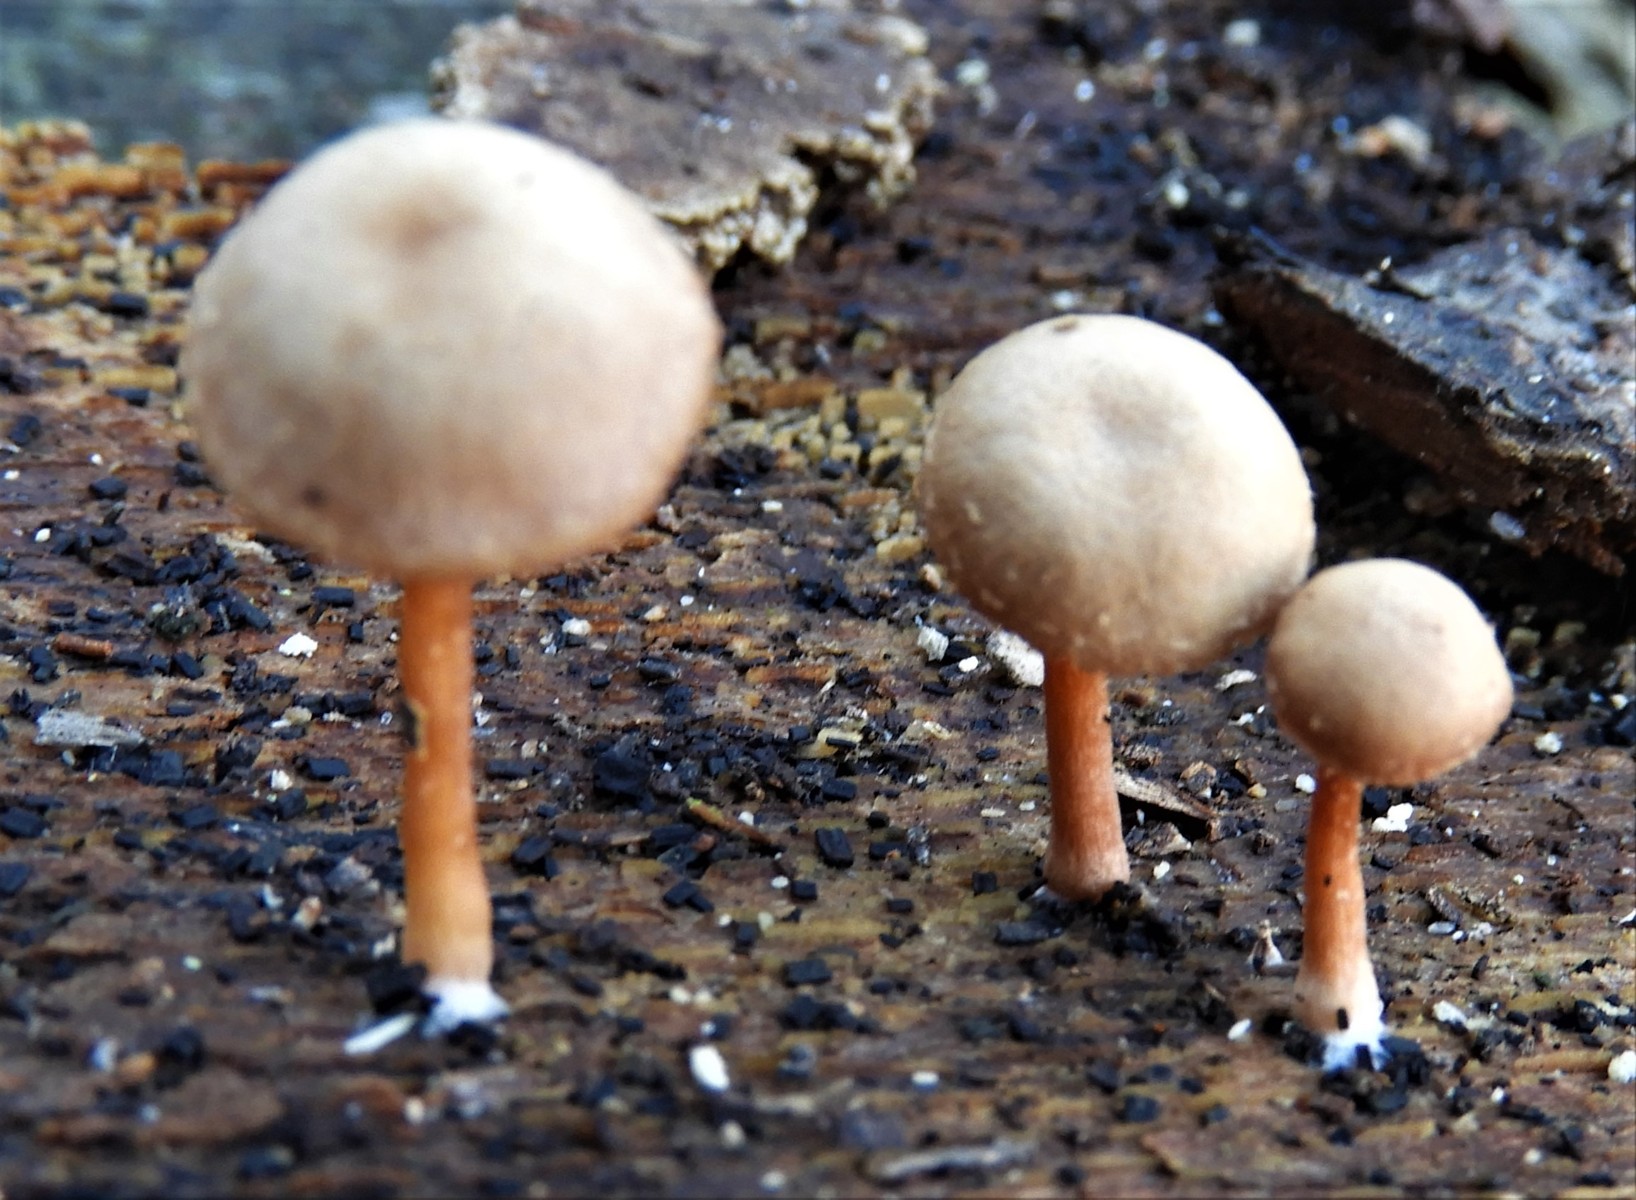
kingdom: Fungi
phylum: Basidiomycota
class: Agaricomycetes
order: Agaricales
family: Tubariaceae
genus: Tubaria
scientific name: Tubaria furfuracea
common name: kliddet fnughat
